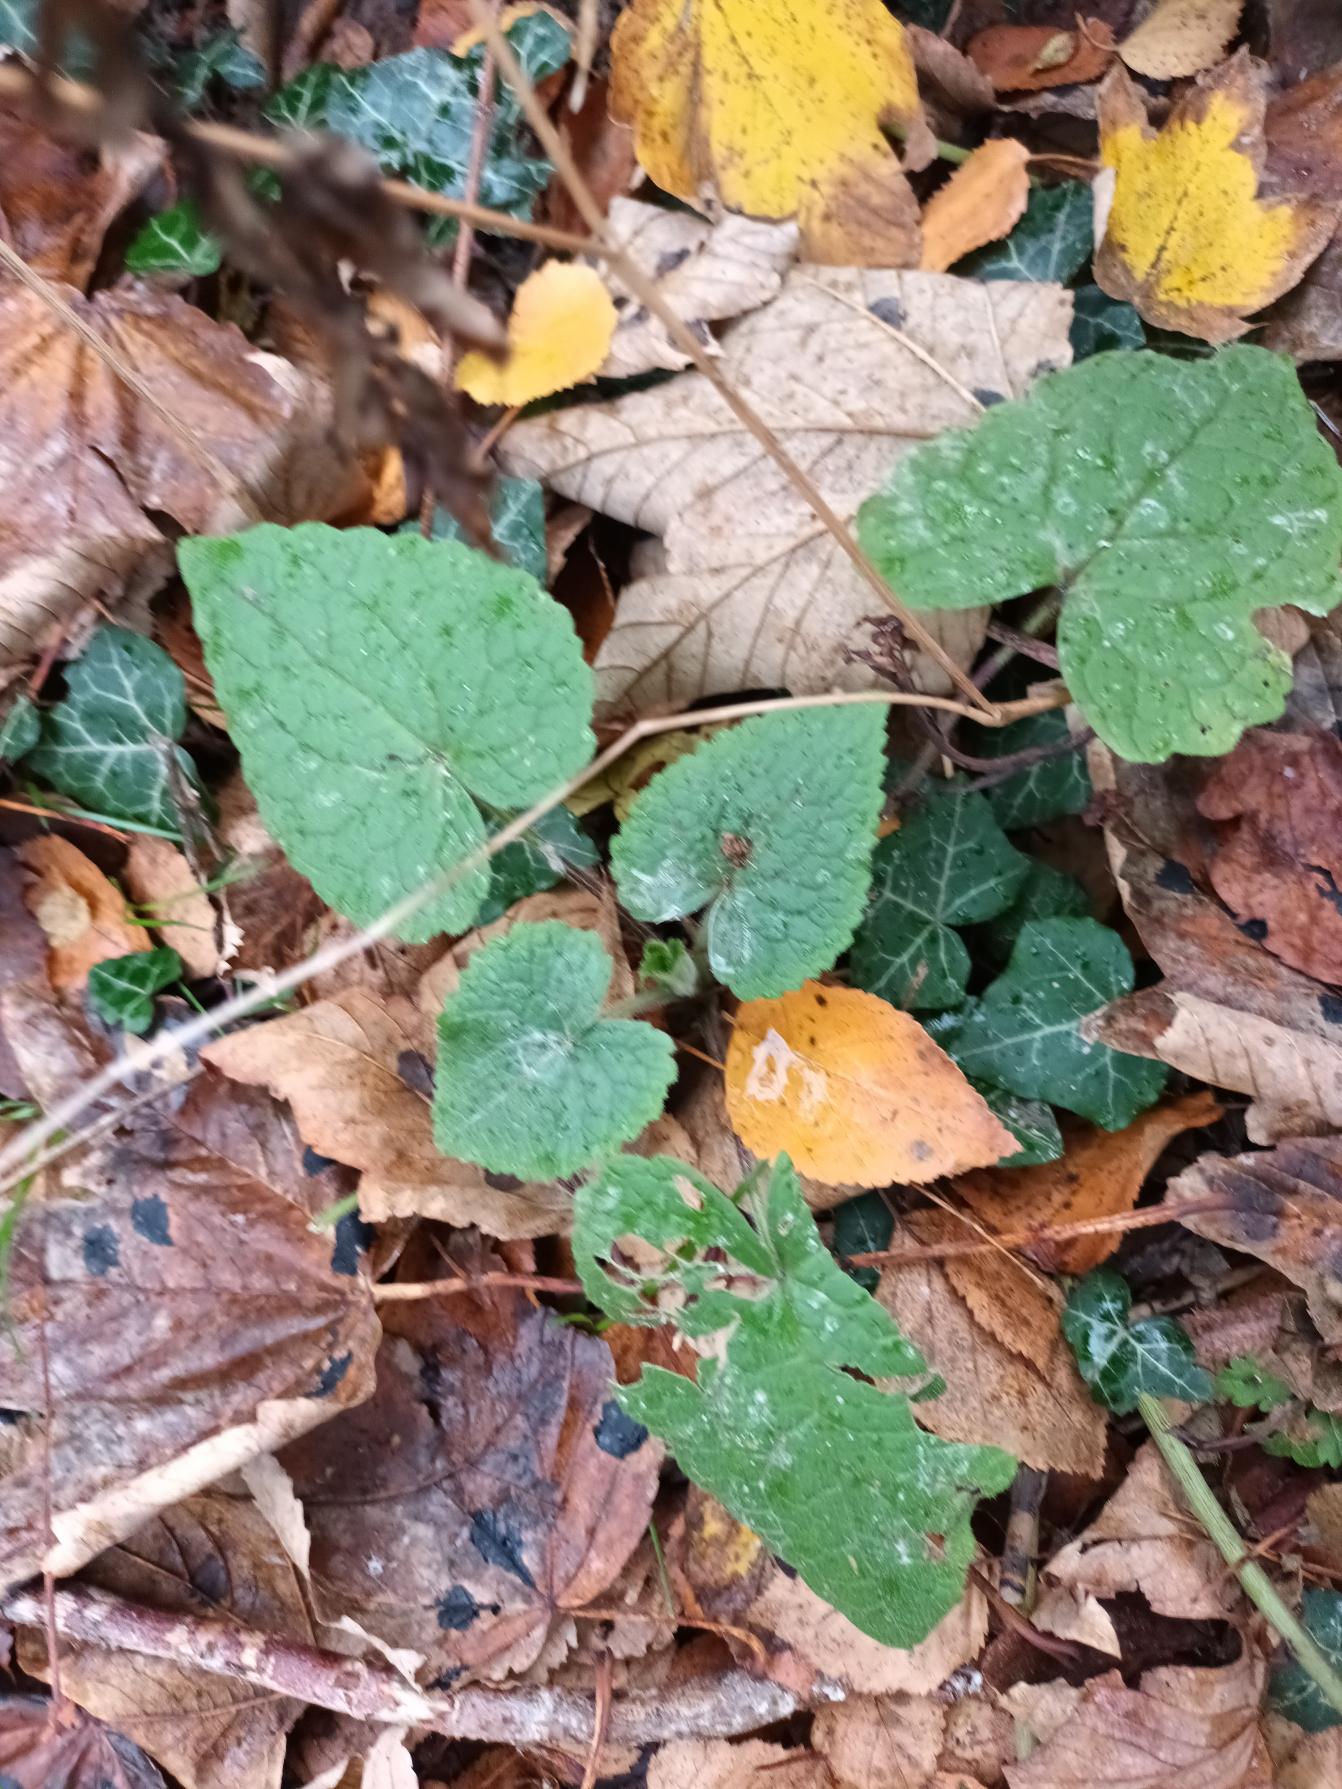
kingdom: Plantae
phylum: Tracheophyta
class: Magnoliopsida
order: Brassicales
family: Brassicaceae
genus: Lunaria
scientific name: Lunaria annua
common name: Judaspenge
